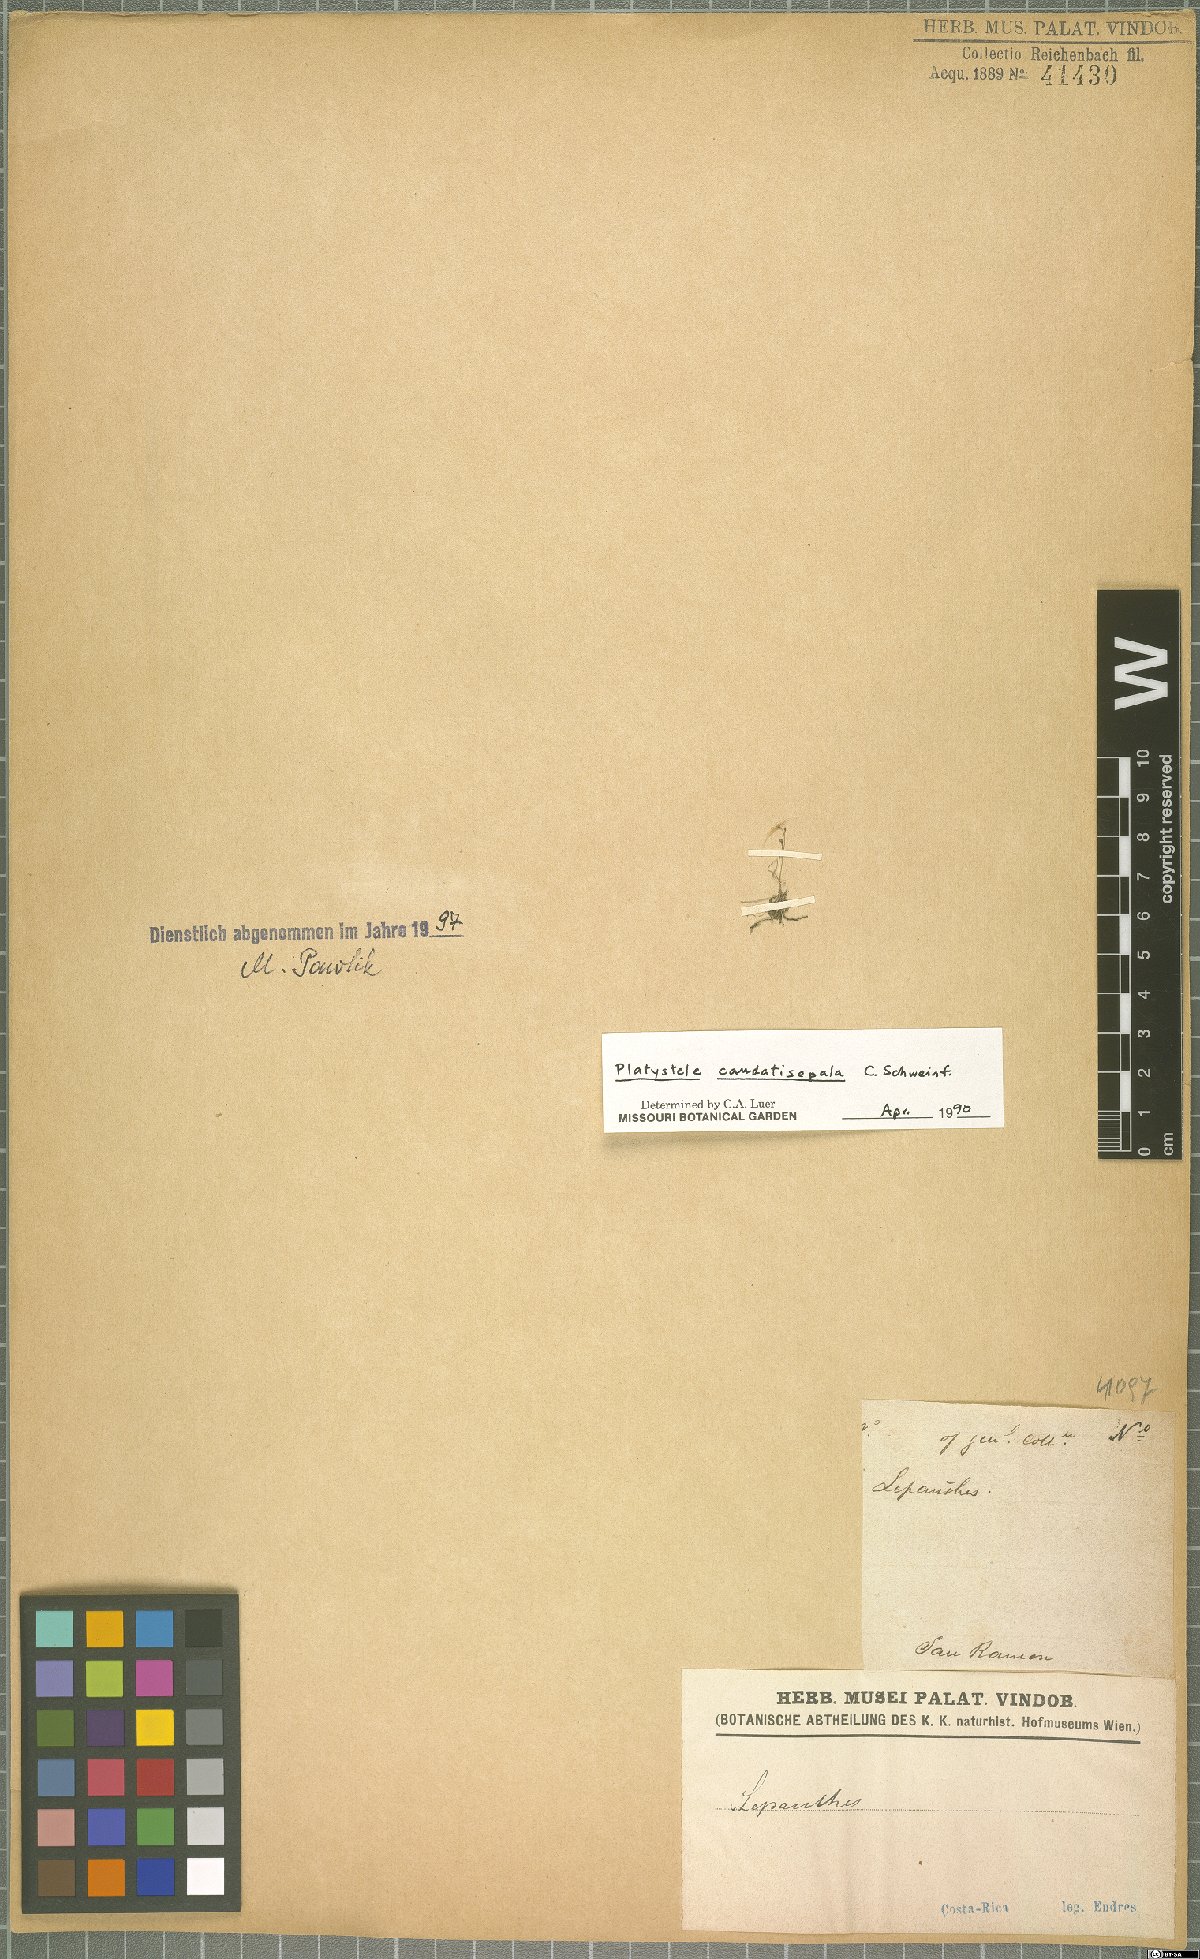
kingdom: Plantae
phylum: Tracheophyta
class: Liliopsida
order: Asparagales
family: Orchidaceae
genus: Platystele
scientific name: Platystele caudatisepala
